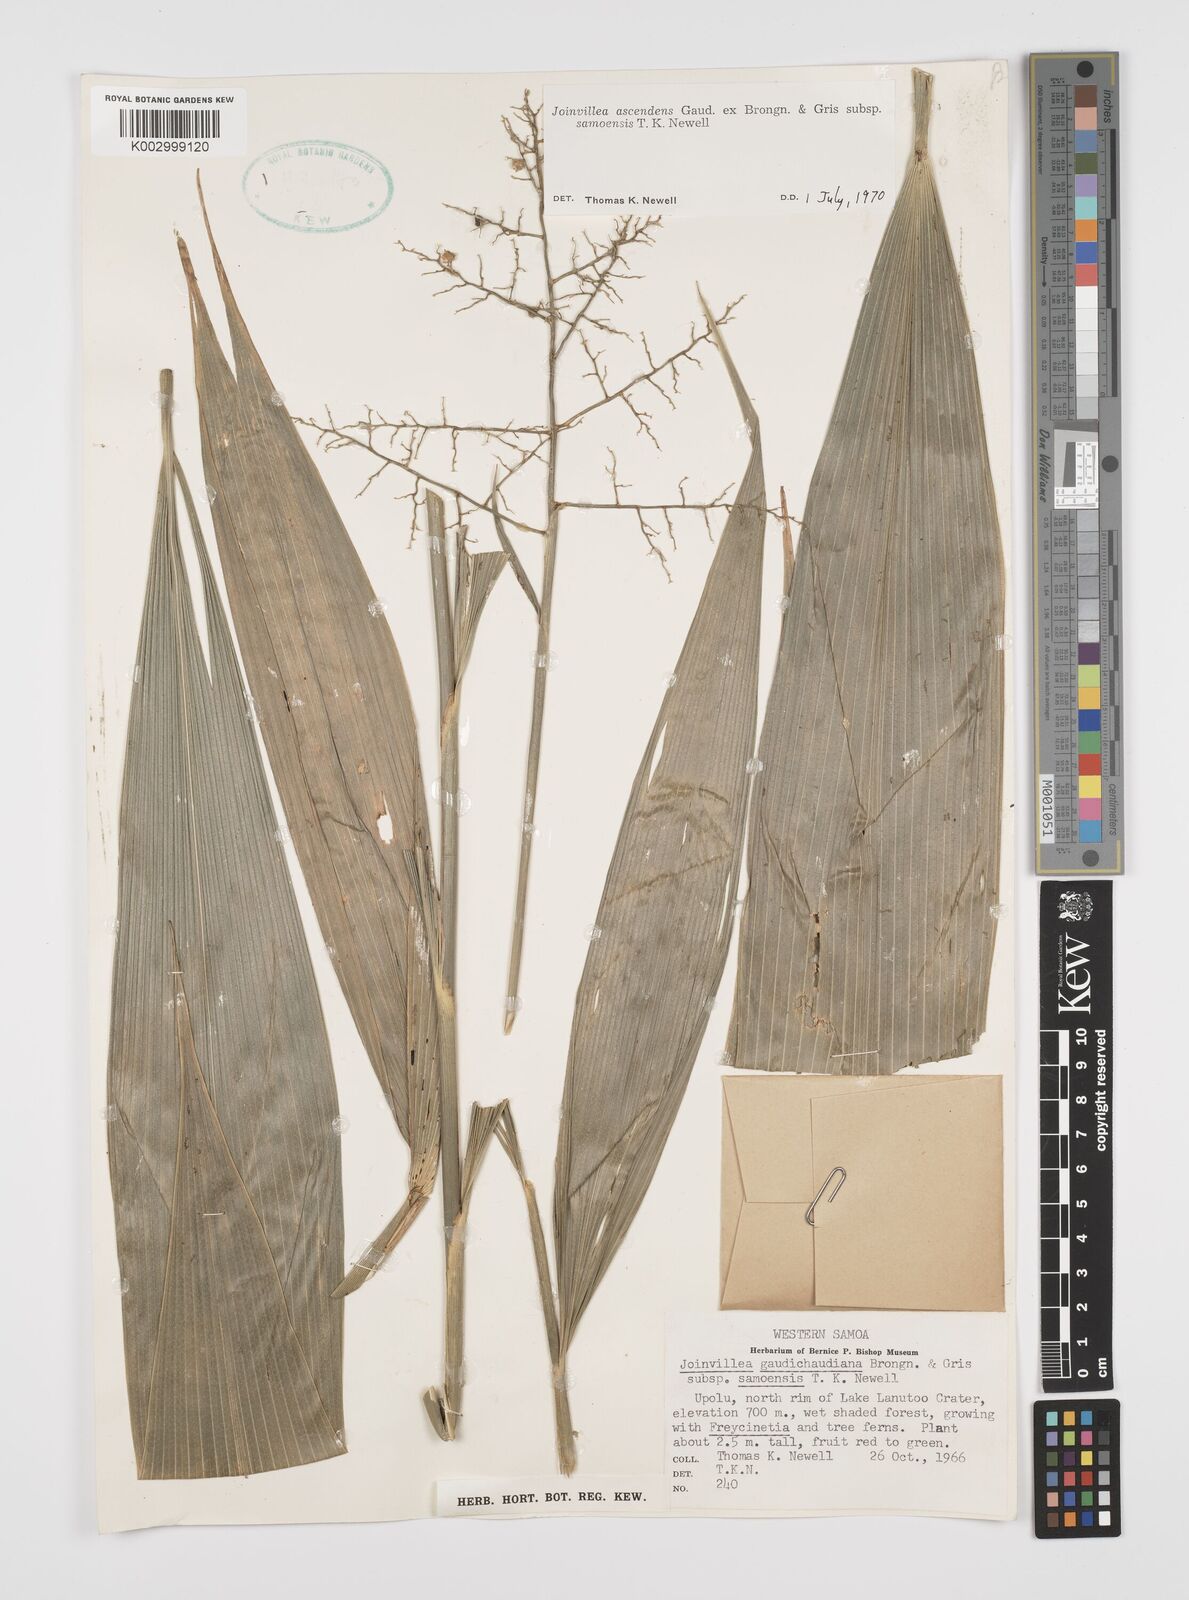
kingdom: Plantae
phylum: Tracheophyta
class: Liliopsida
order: Poales
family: Joinvilleaceae
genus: Joinvillea
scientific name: Joinvillea ascendens
